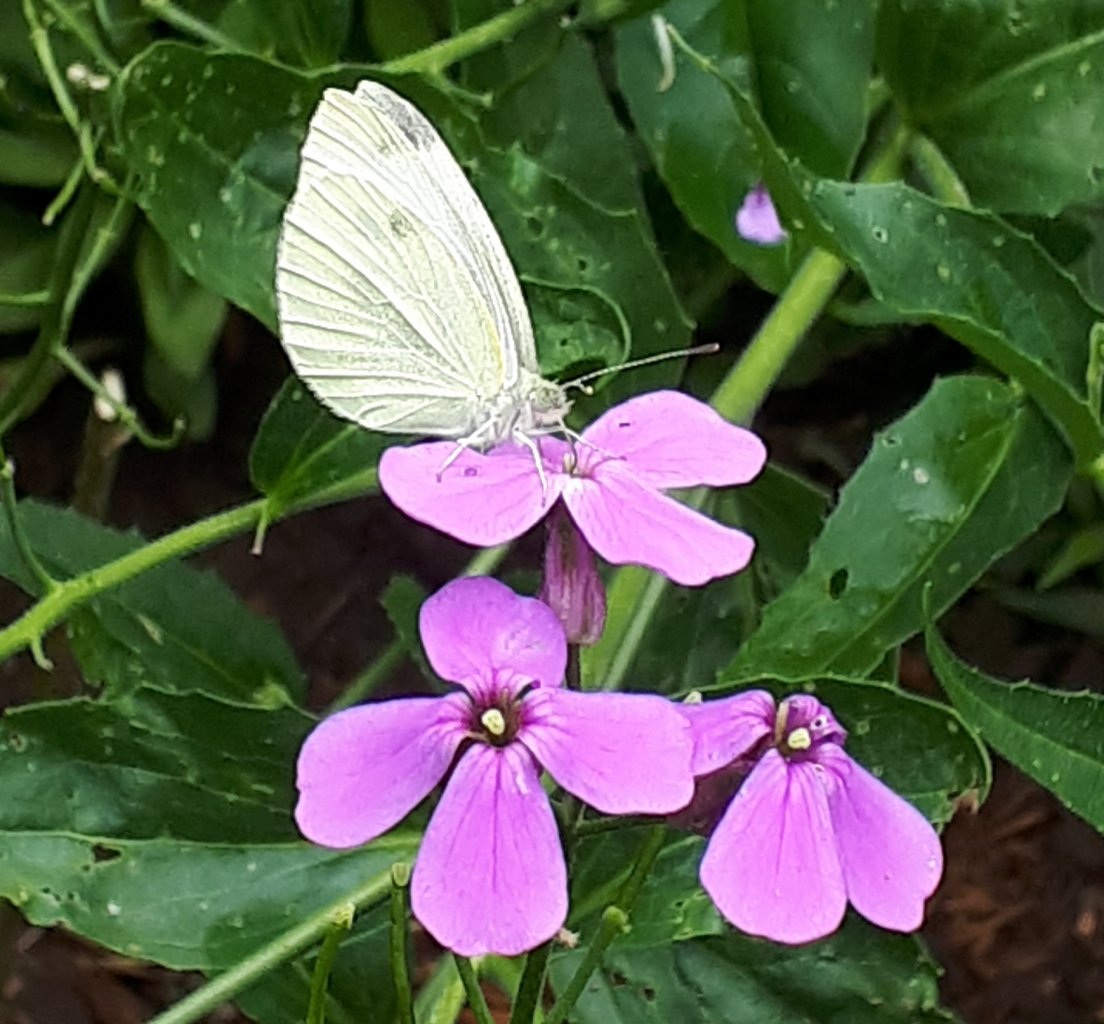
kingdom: Animalia
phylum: Arthropoda
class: Insecta
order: Lepidoptera
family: Pieridae
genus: Pieris
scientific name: Pieris rapae
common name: Cabbage White
